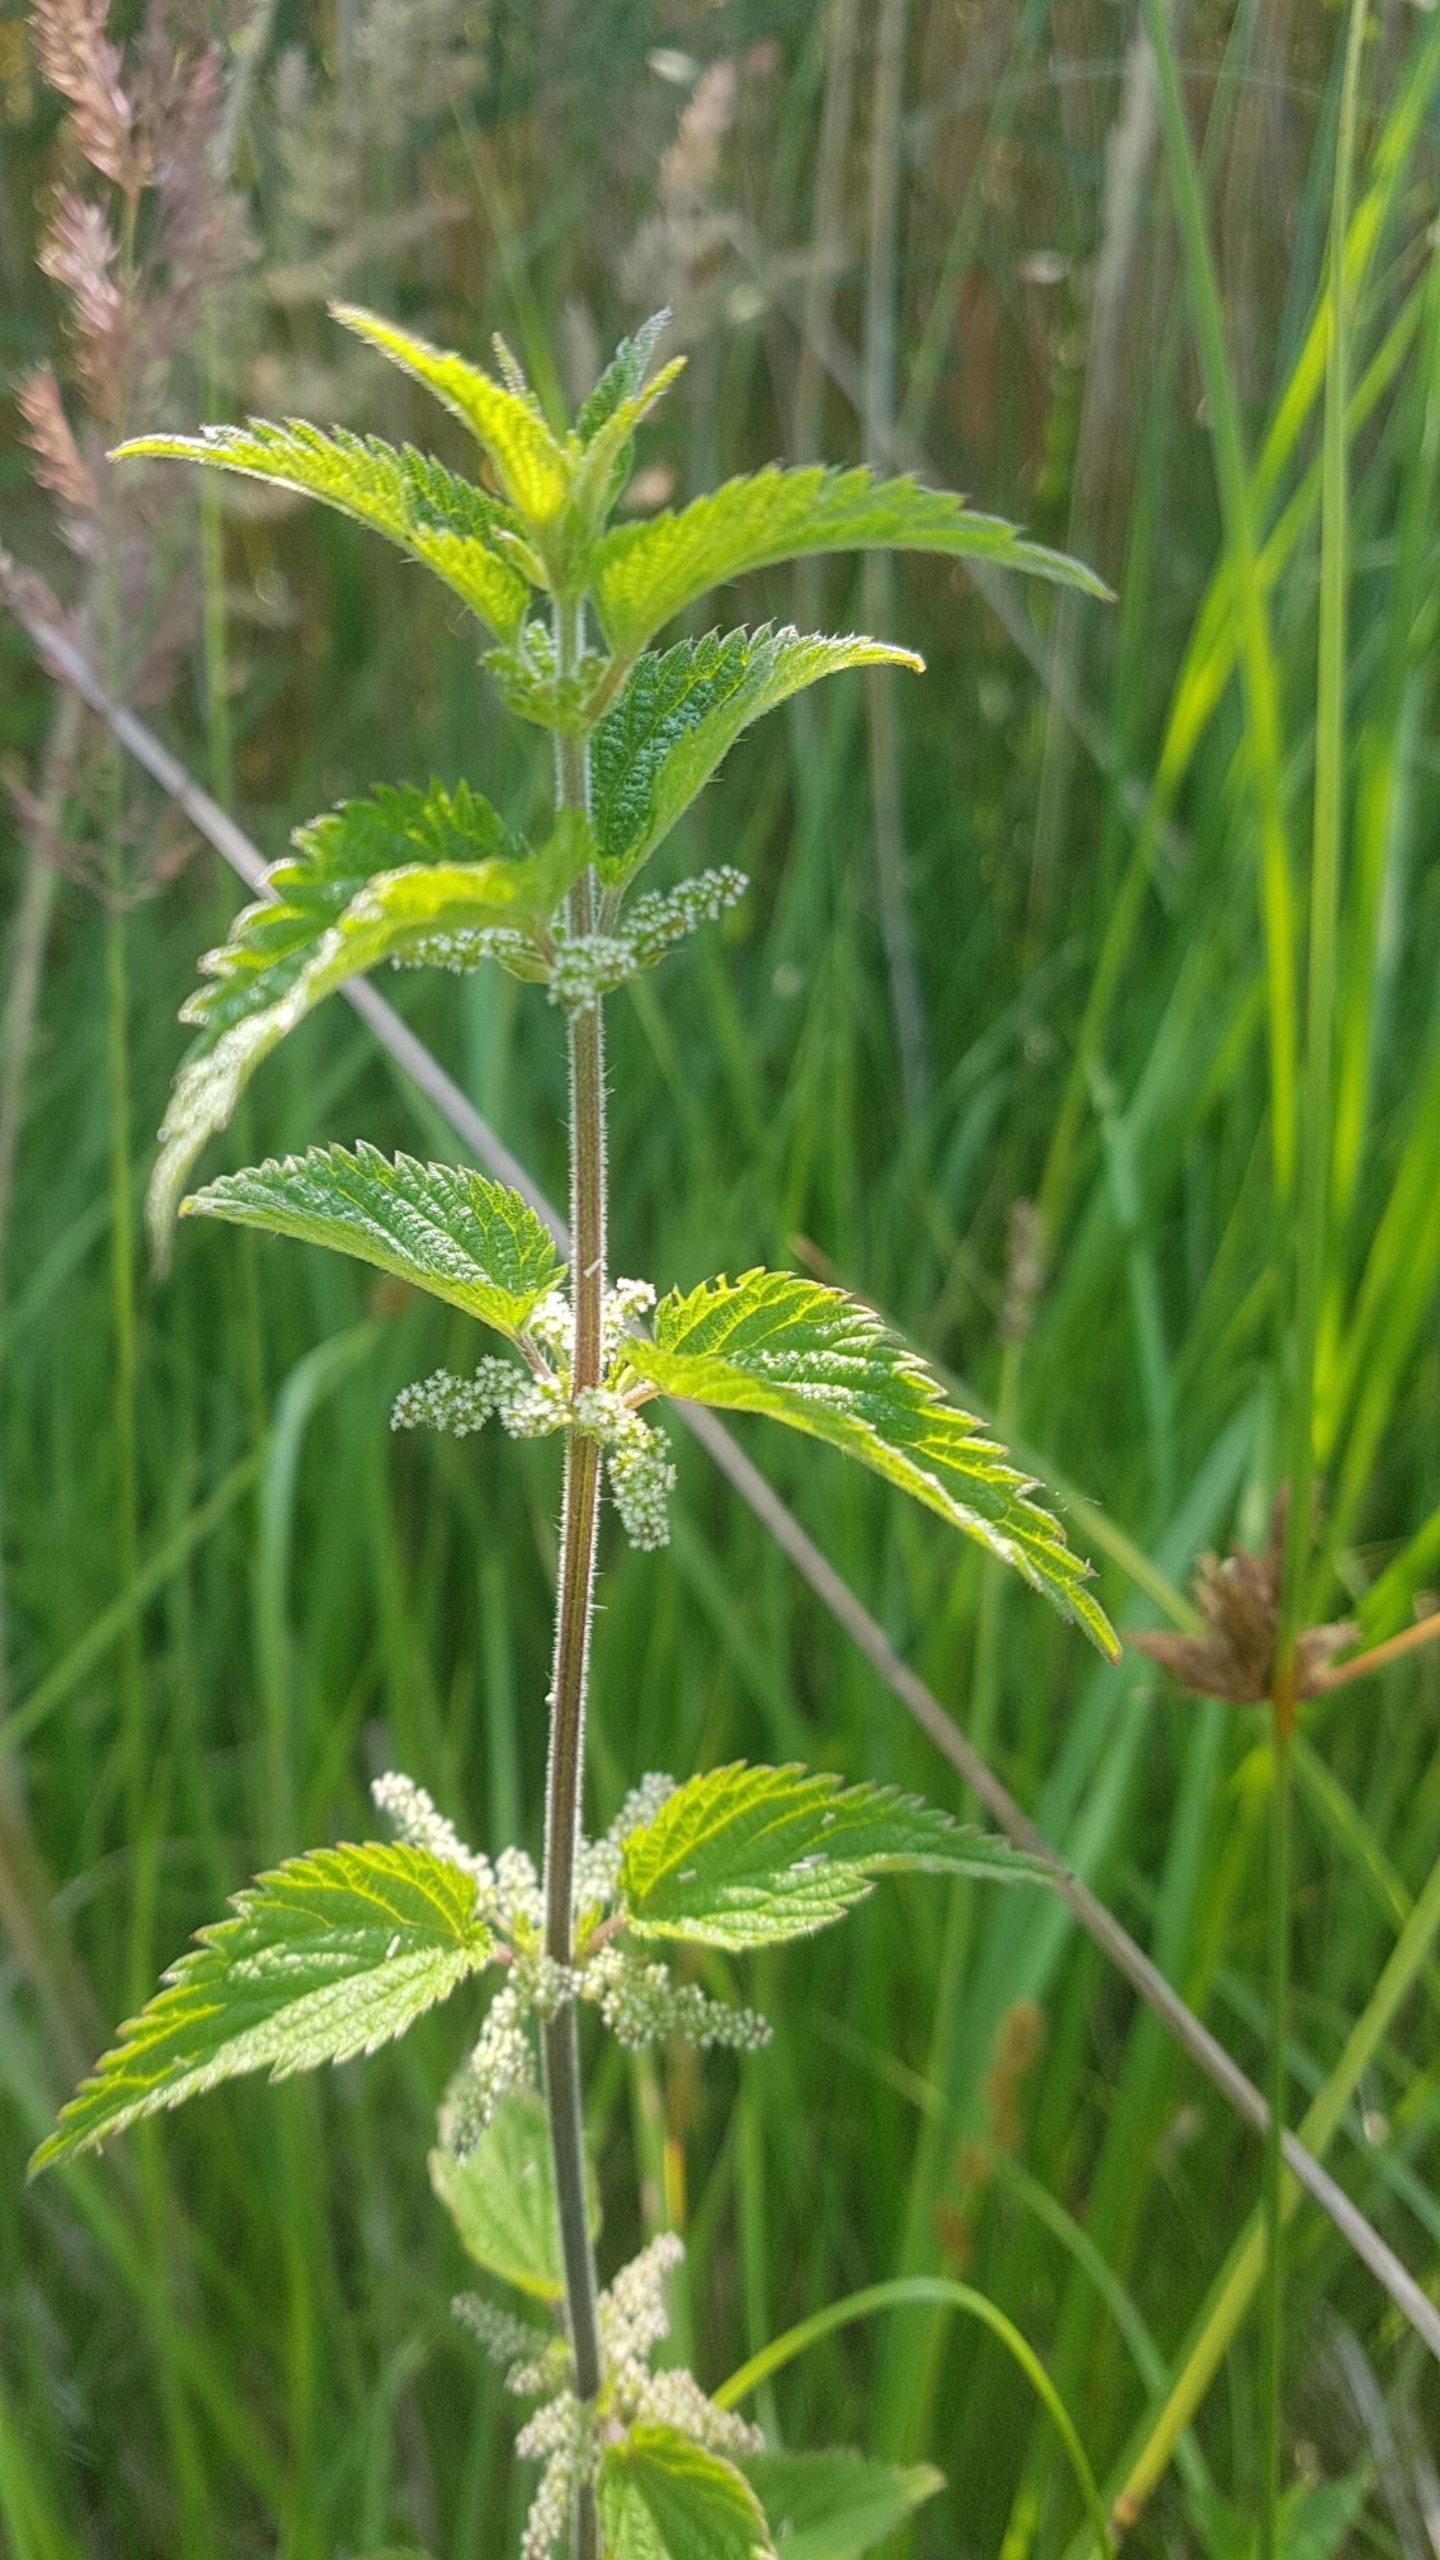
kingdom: Plantae
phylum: Tracheophyta
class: Magnoliopsida
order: Rosales
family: Urticaceae
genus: Urtica
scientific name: Urtica dioica
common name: Stor nælde
